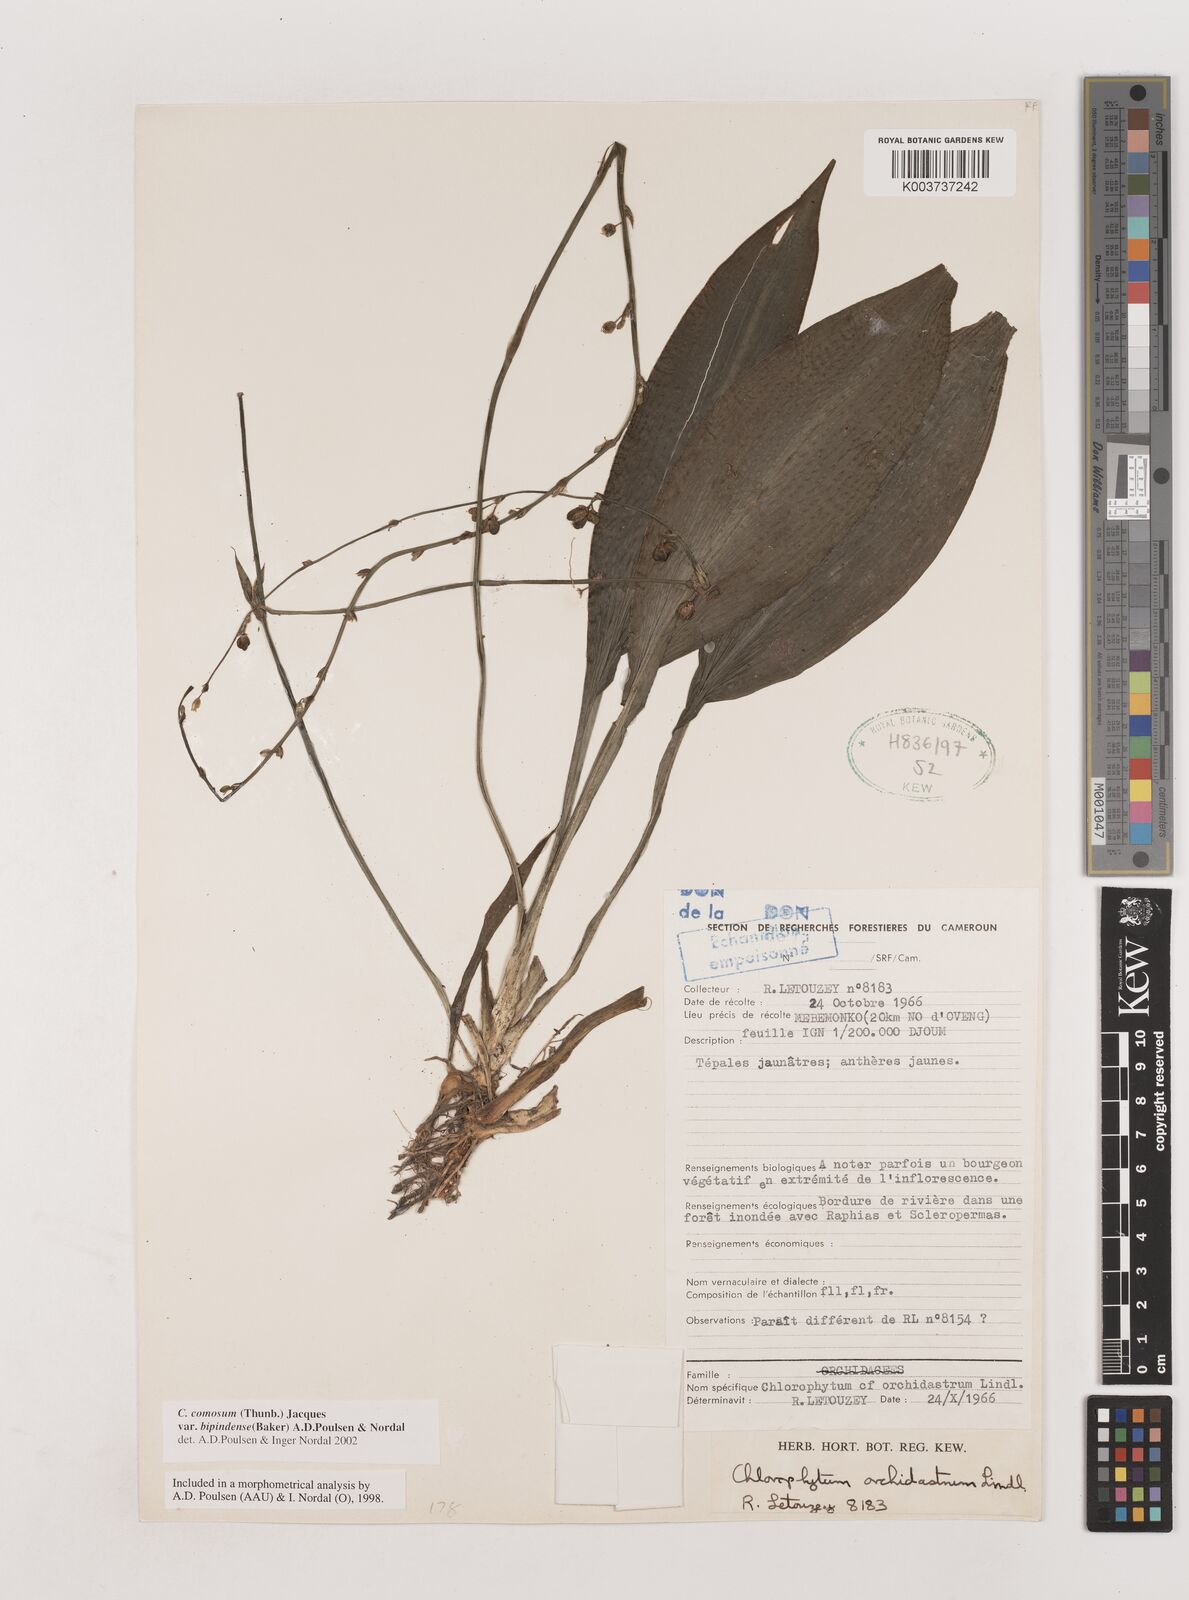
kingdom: Plantae
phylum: Tracheophyta
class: Liliopsida
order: Asparagales
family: Asparagaceae
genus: Chlorophytum
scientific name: Chlorophytum sparsiflorum
